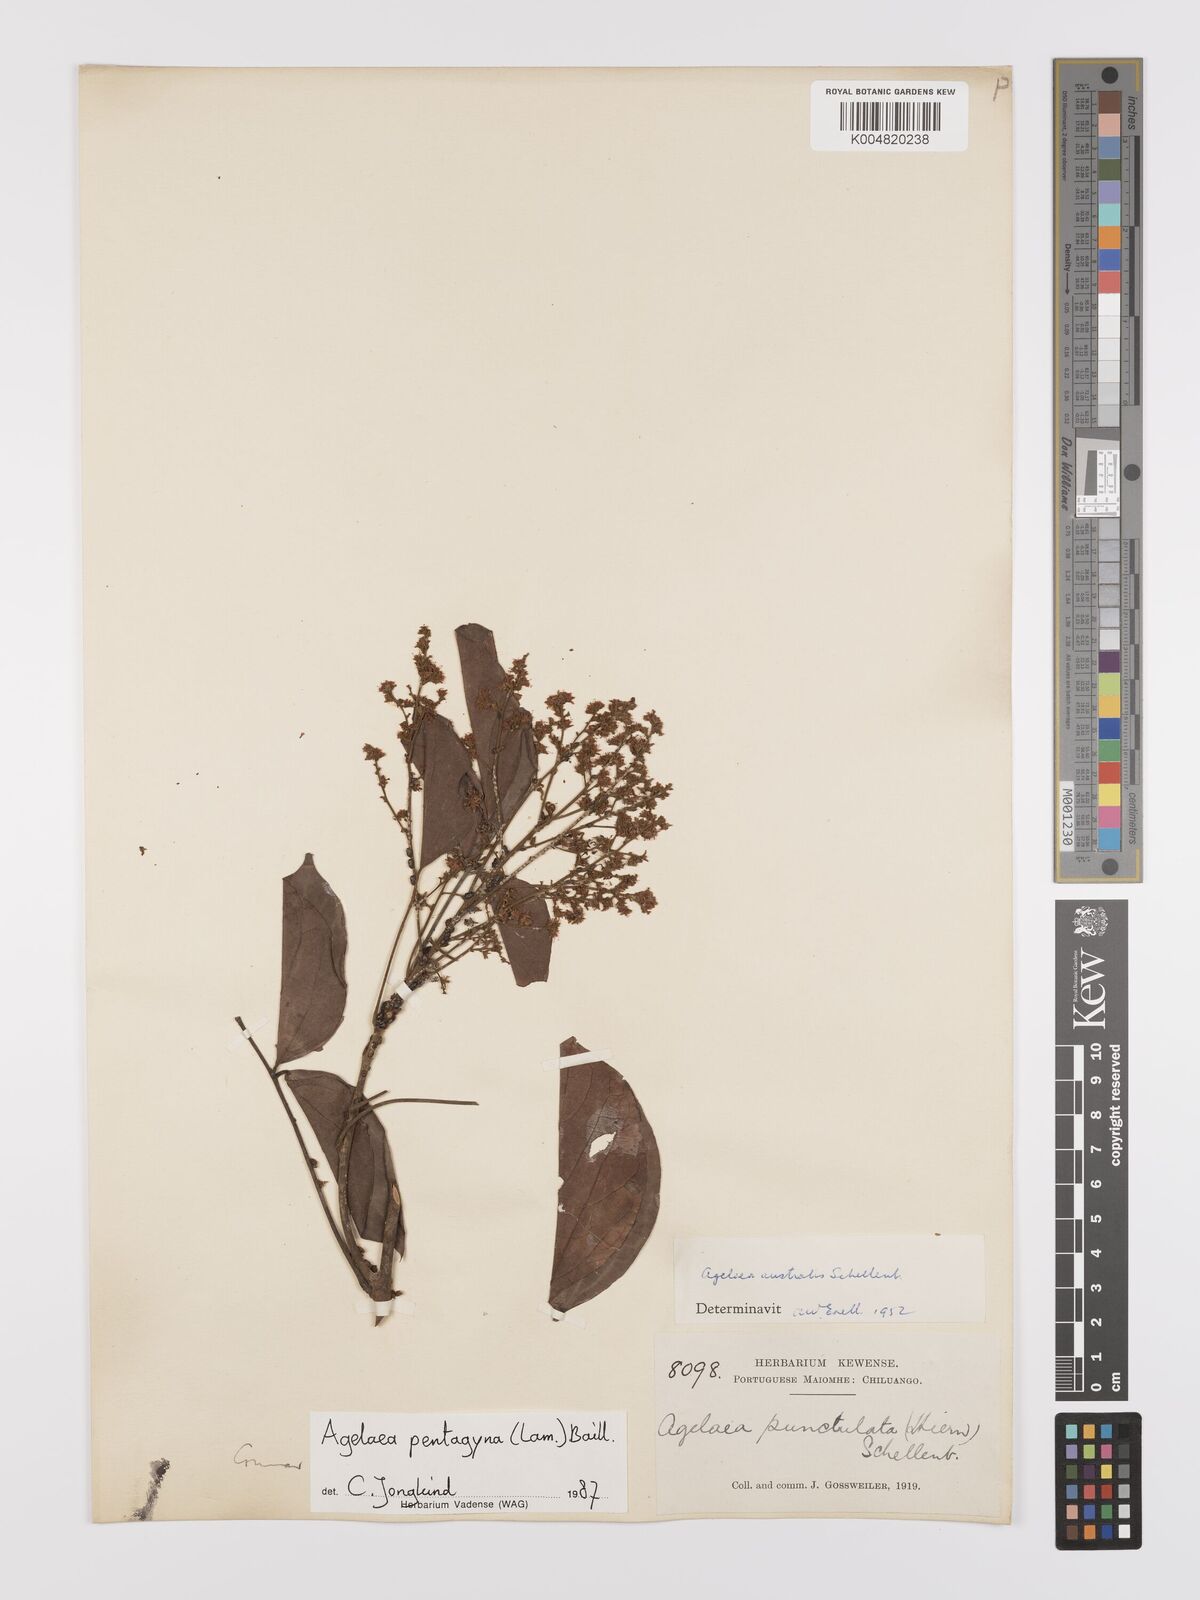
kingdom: Plantae
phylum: Tracheophyta
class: Magnoliopsida
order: Oxalidales
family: Connaraceae
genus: Agelaea
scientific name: Agelaea pentagyna
